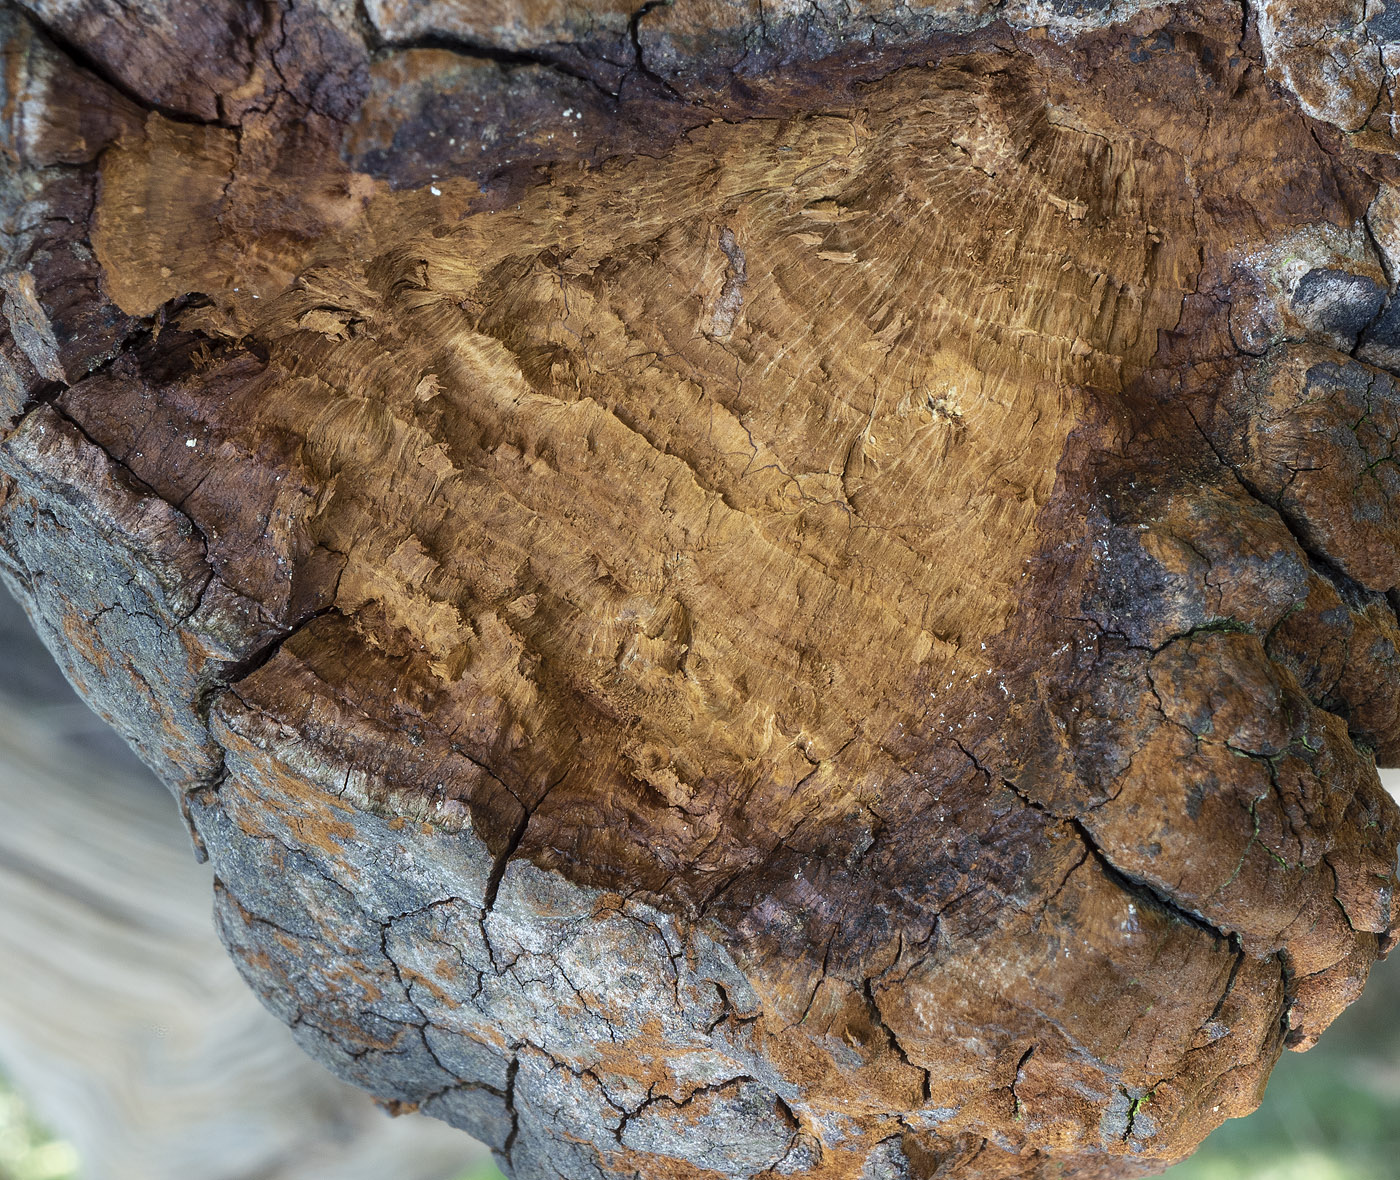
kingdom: Fungi
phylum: Basidiomycota
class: Agaricomycetes
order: Hymenochaetales
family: Hymenochaetaceae
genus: Fomitiporia
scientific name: Fomitiporia robusta
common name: ege-ildporesvamp
